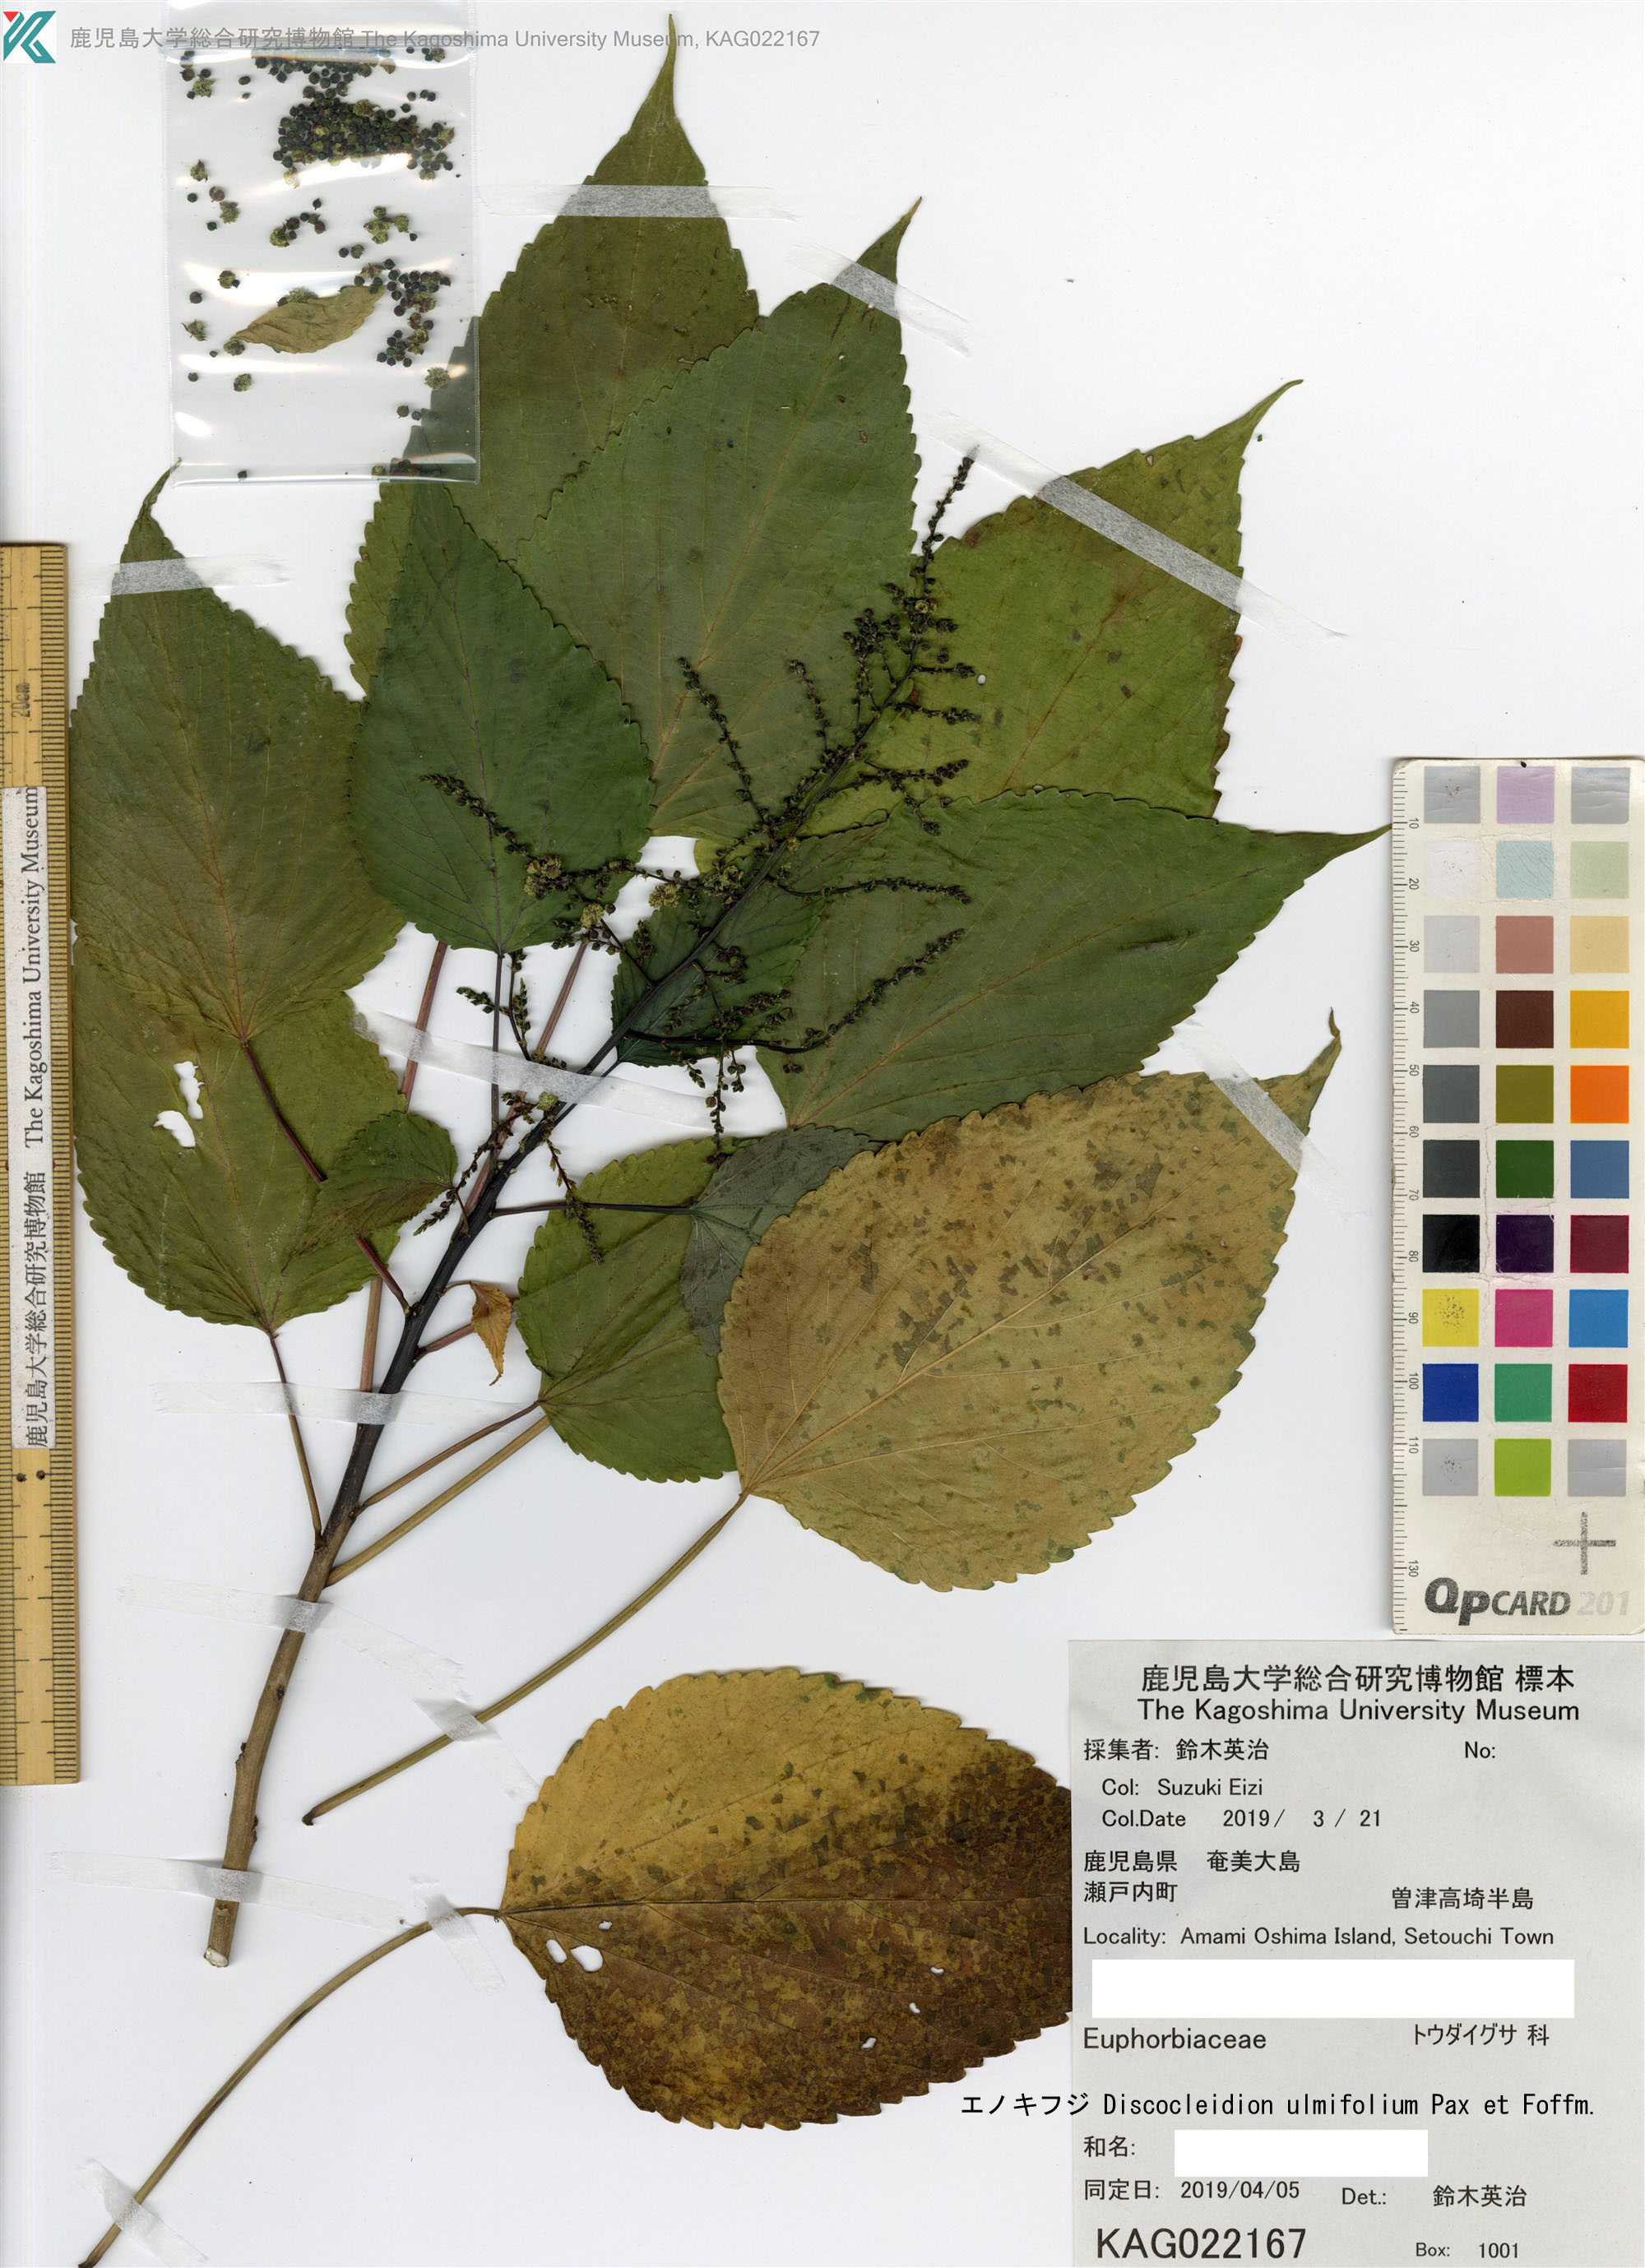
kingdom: Plantae
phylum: Tracheophyta
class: Magnoliopsida
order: Malpighiales
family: Euphorbiaceae
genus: Discocleidion
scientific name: Discocleidion ulmifolium
